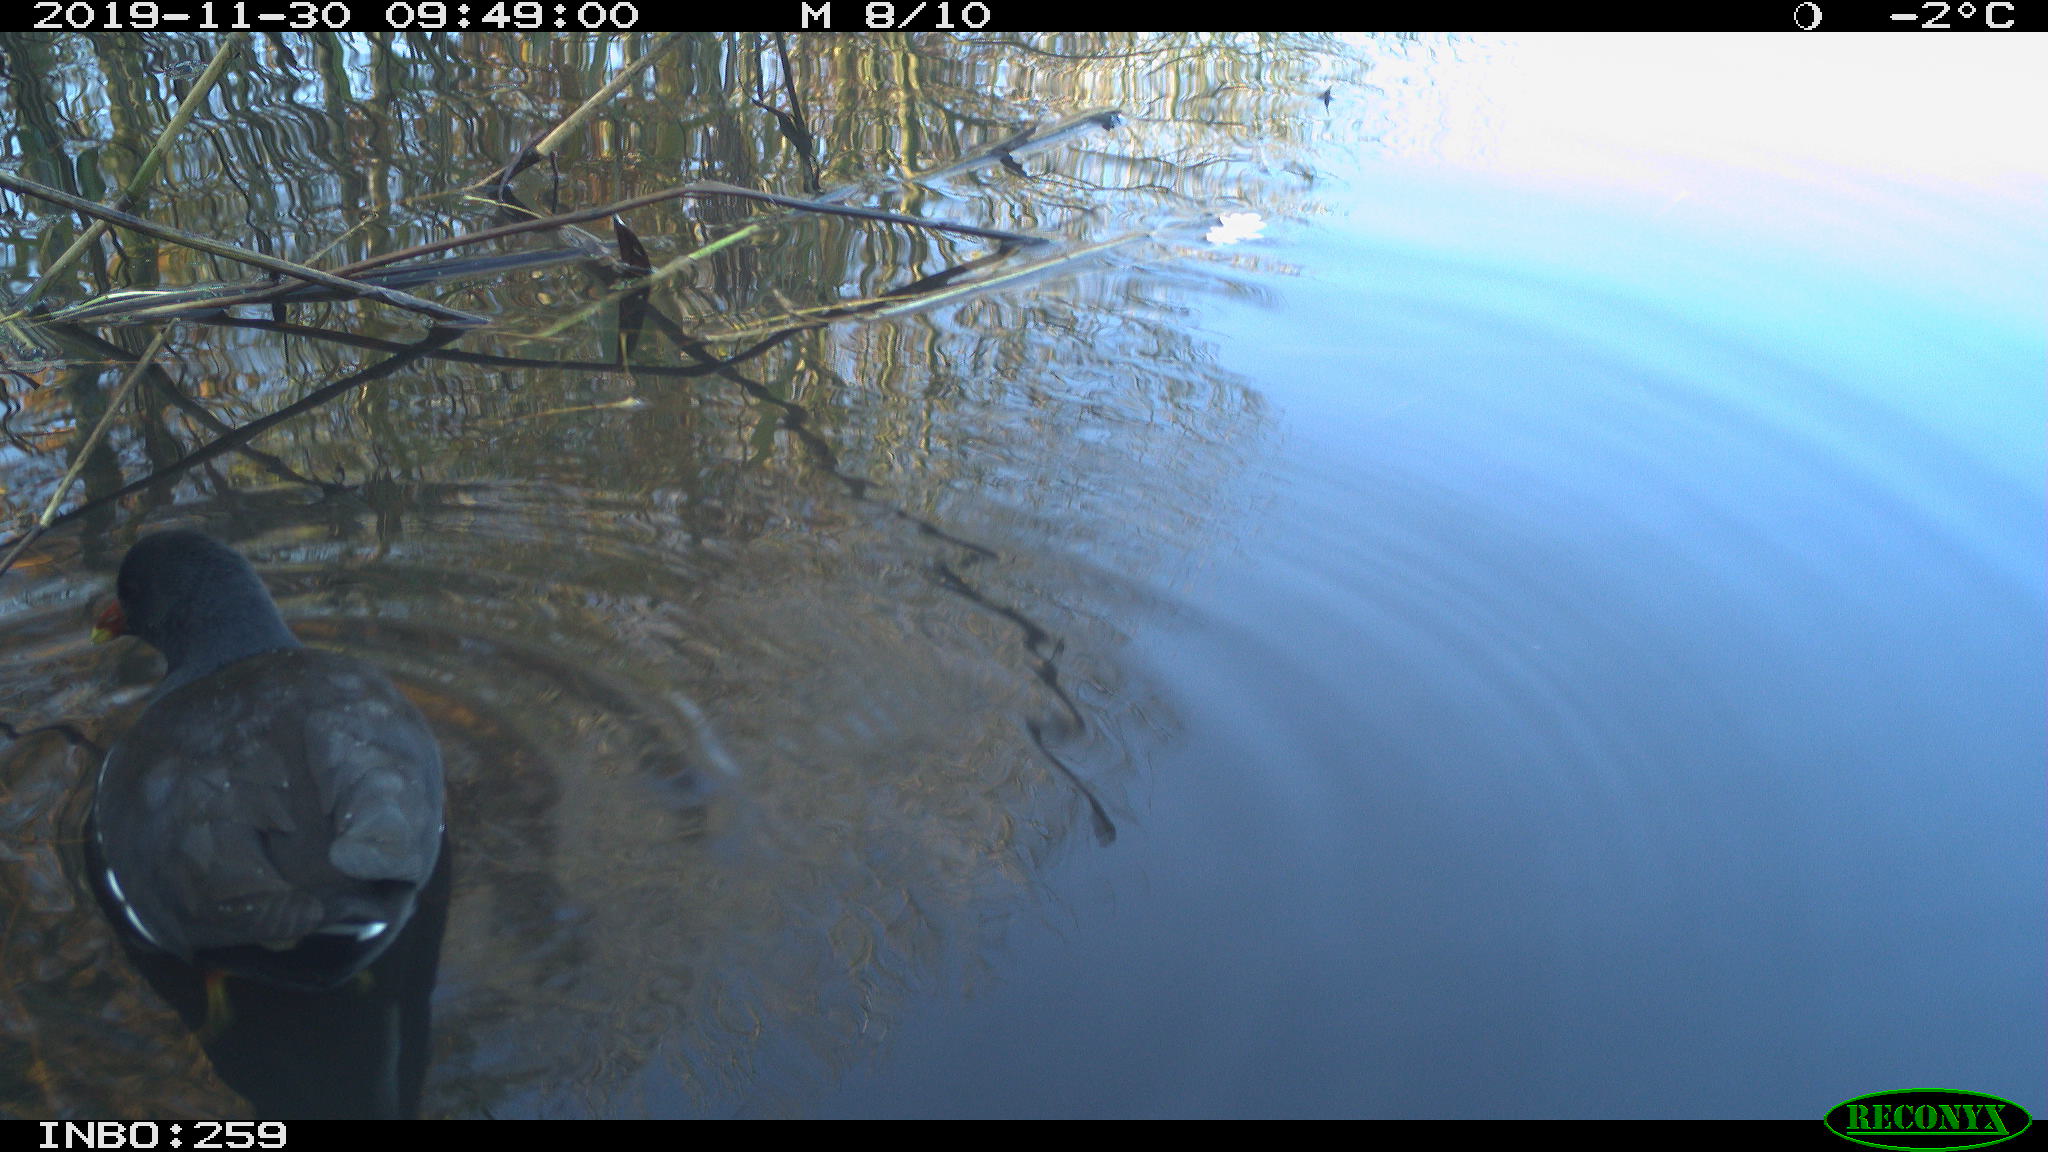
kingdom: Animalia
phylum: Chordata
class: Aves
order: Gruiformes
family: Rallidae
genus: Gallinula
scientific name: Gallinula chloropus
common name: Common moorhen
